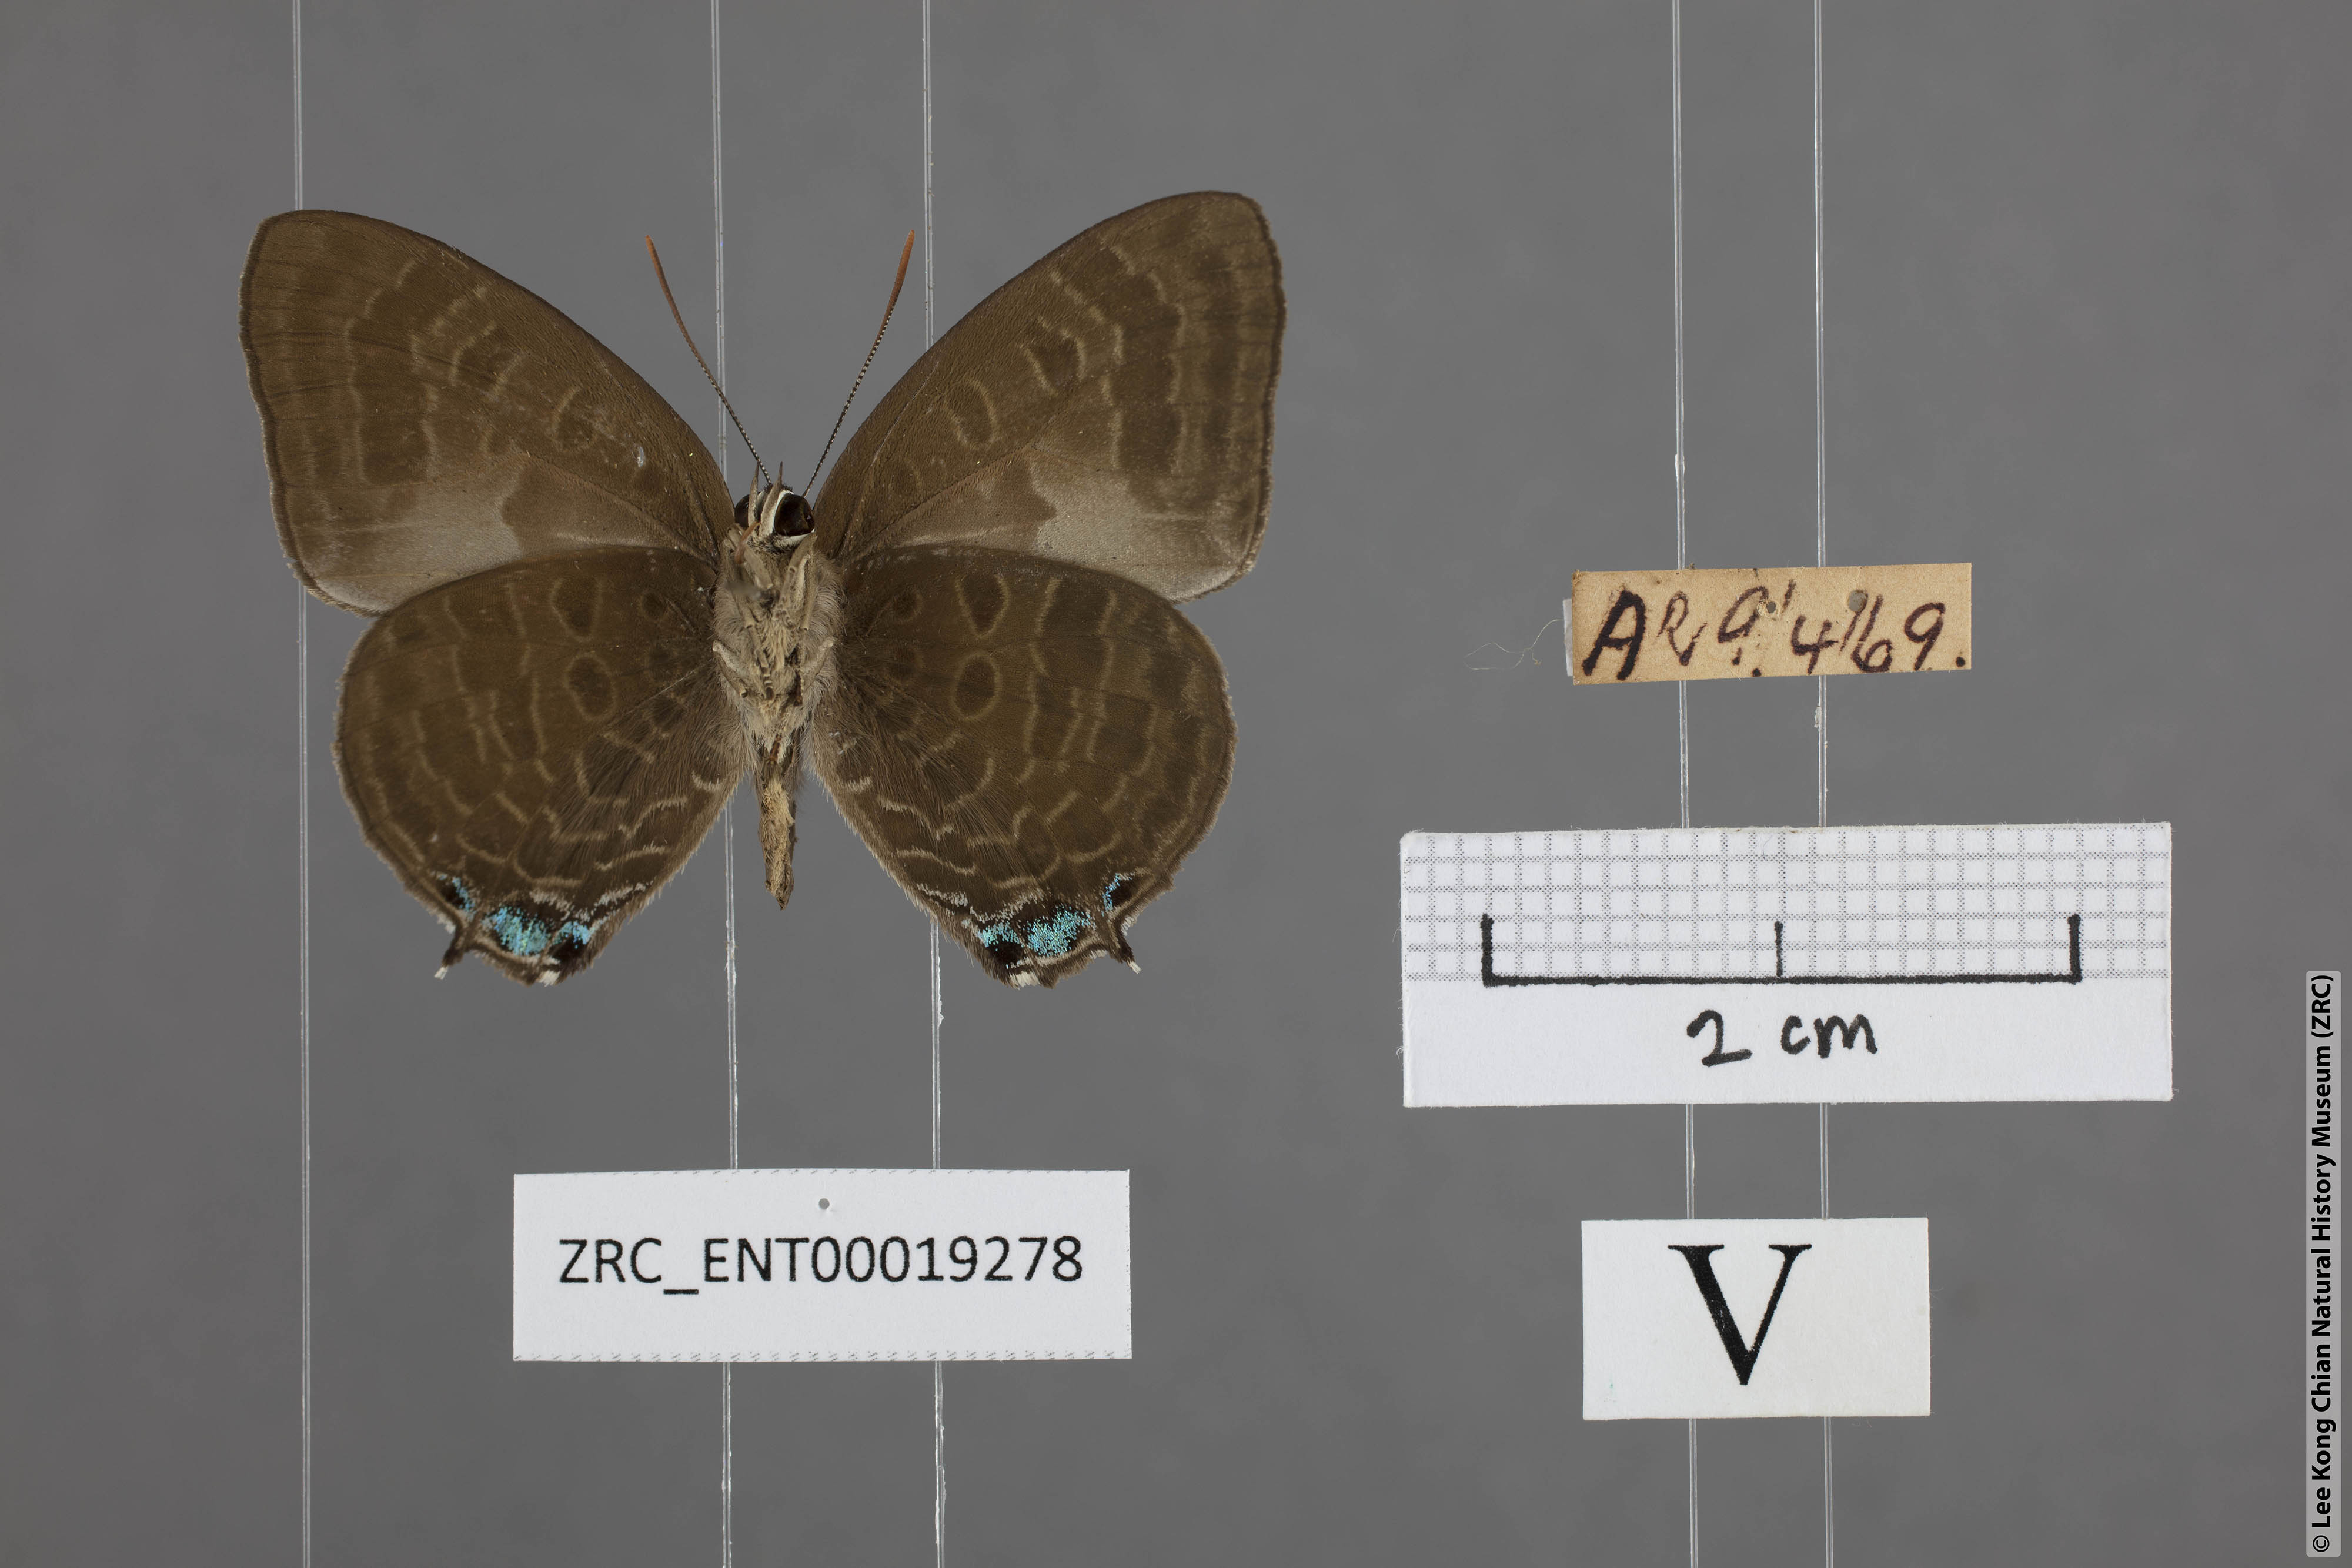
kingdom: Animalia
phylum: Arthropoda
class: Insecta
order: Lepidoptera
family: Lycaenidae
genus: Arhopala
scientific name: Arhopala aurea
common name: Long-celled oakblue
